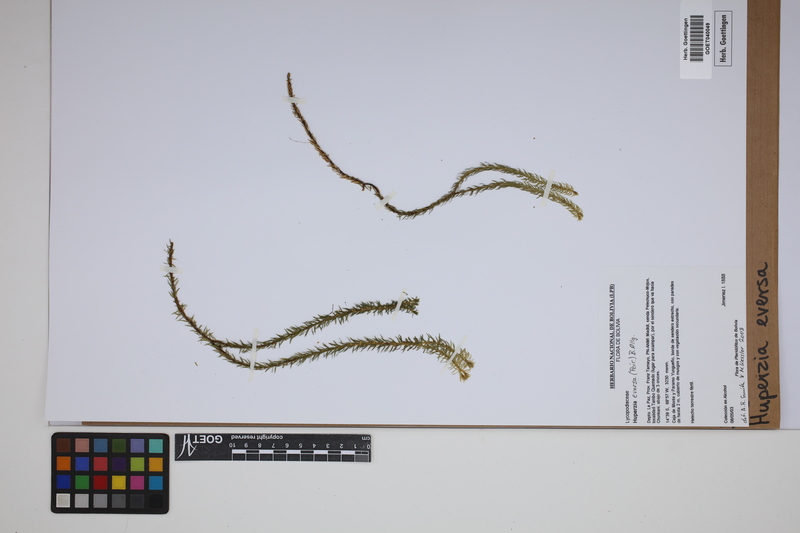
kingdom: Plantae
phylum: Tracheophyta
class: Lycopodiopsida
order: Lycopodiales
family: Lycopodiaceae
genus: Phlegmariurus
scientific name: Phlegmariurus eversus
